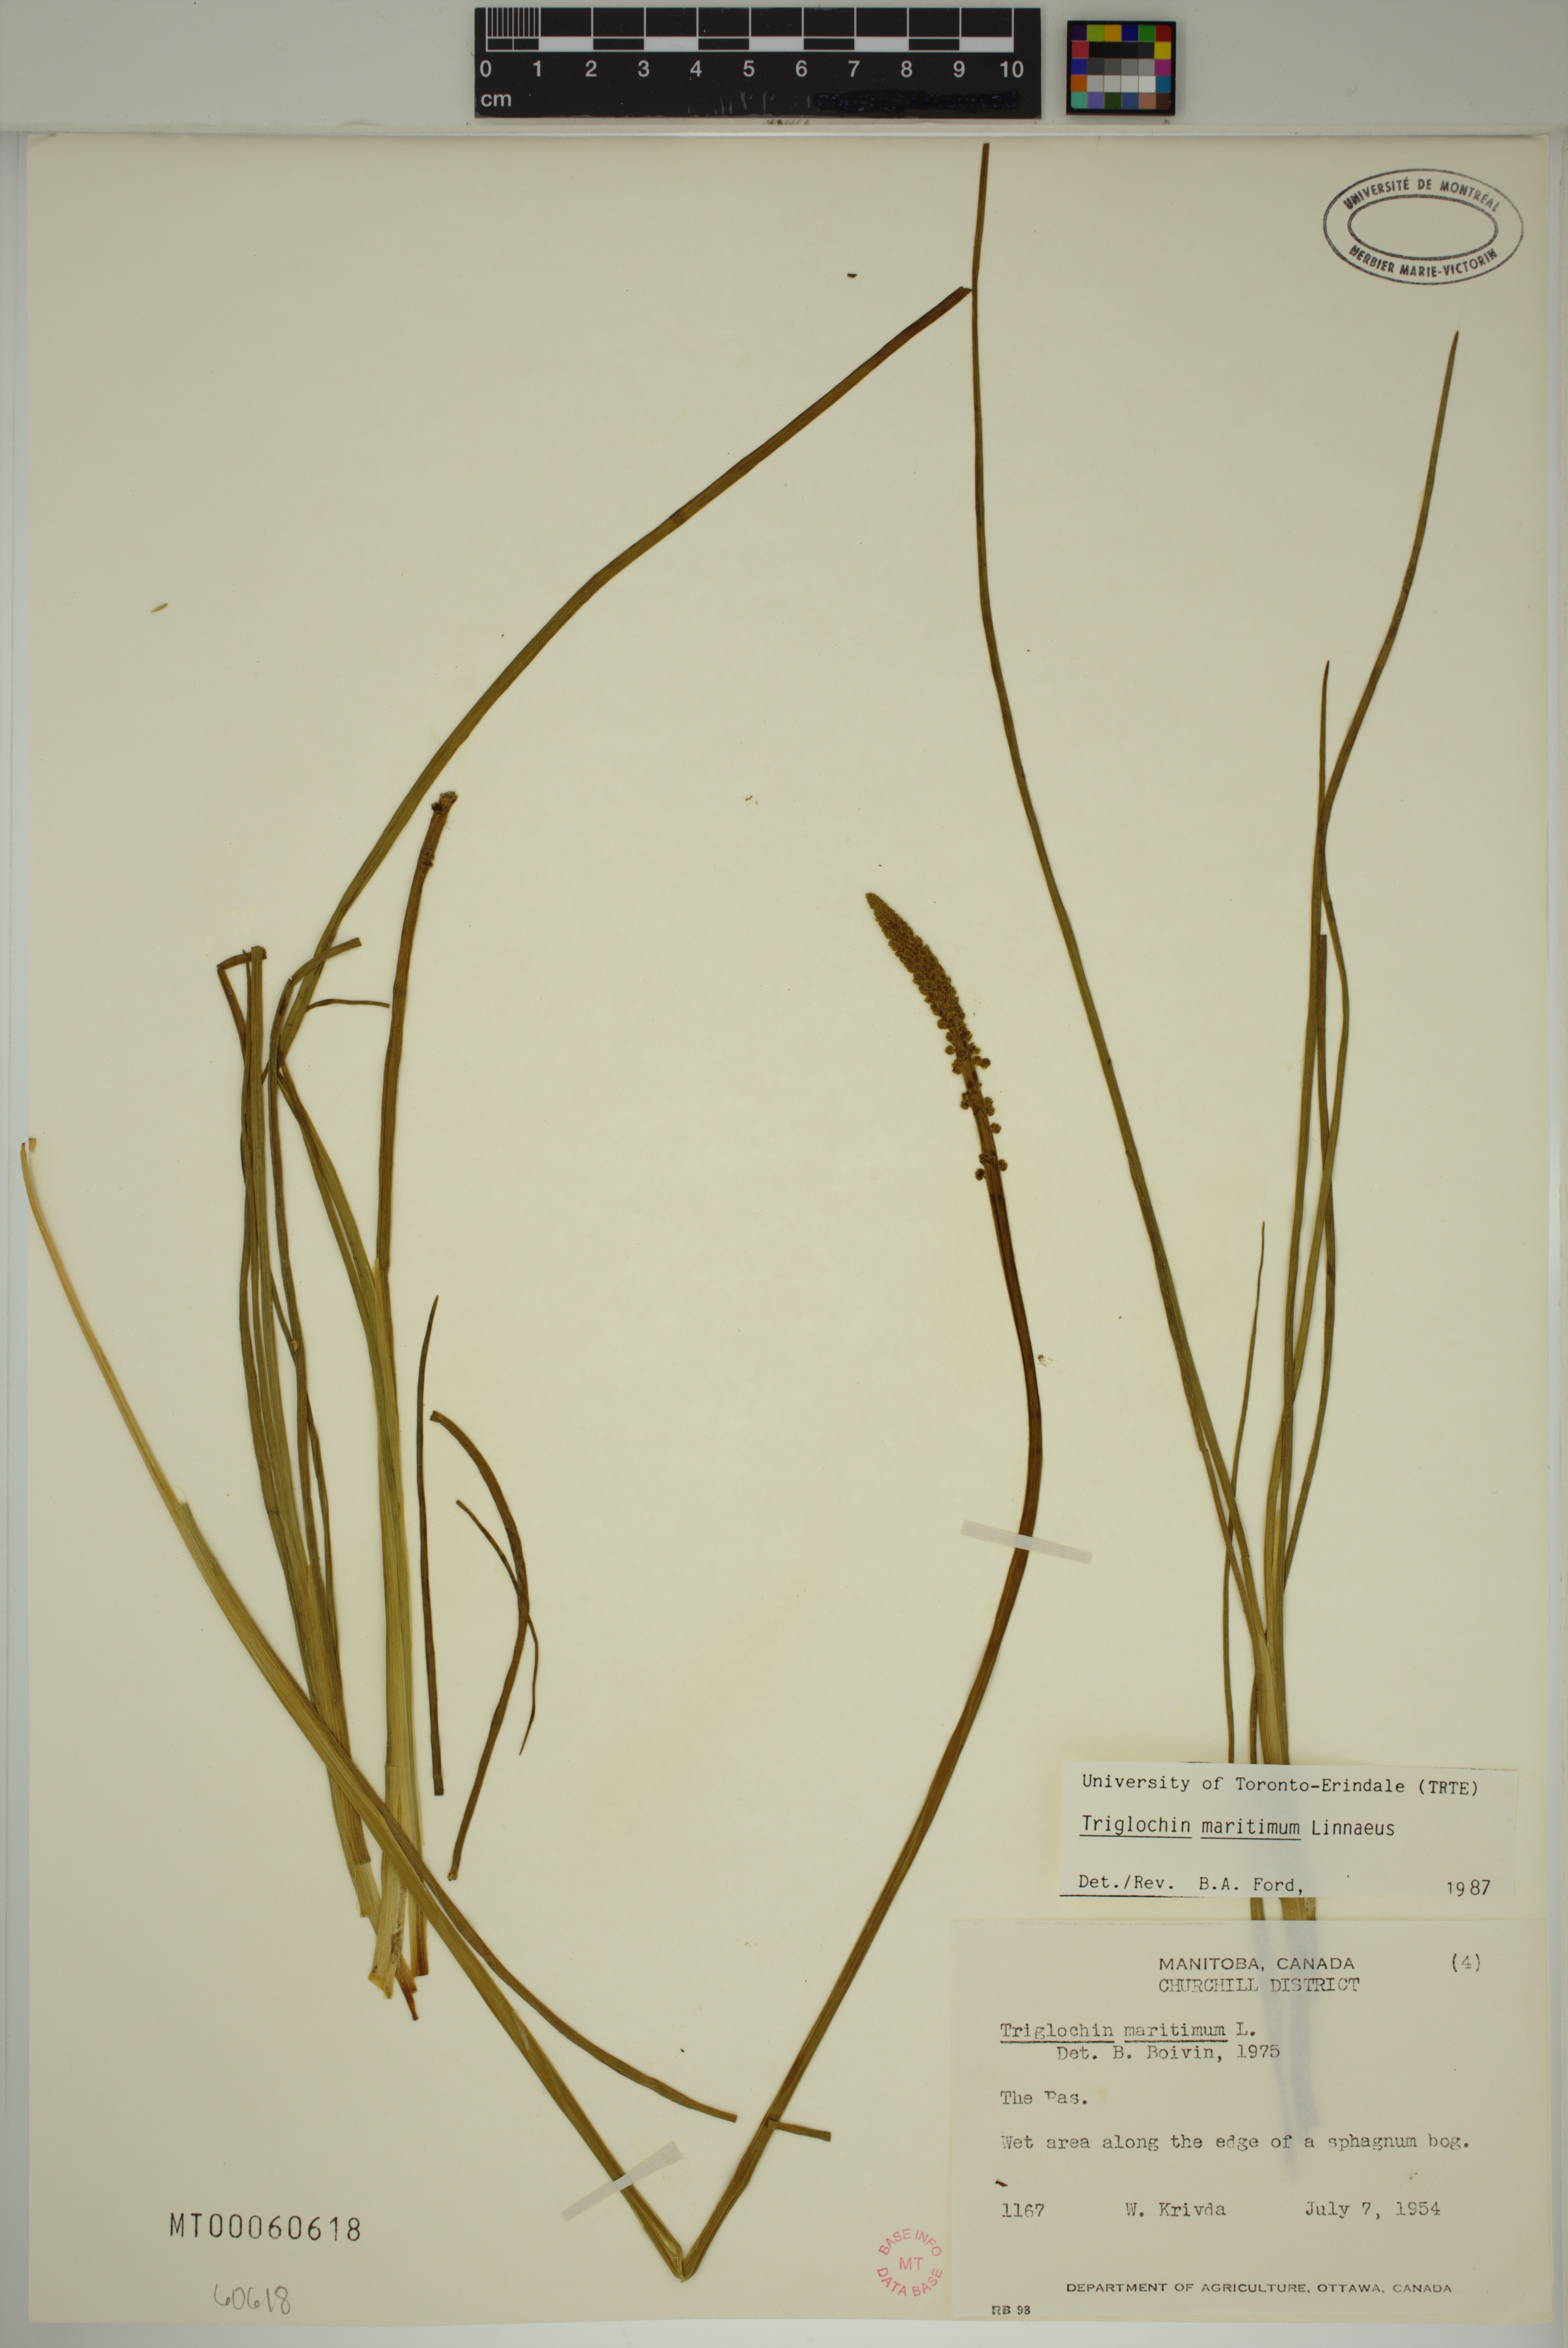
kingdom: Plantae
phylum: Tracheophyta
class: Liliopsida
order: Alismatales
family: Juncaginaceae
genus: Triglochin
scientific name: Triglochin maritima
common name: Sea arrowgrass
